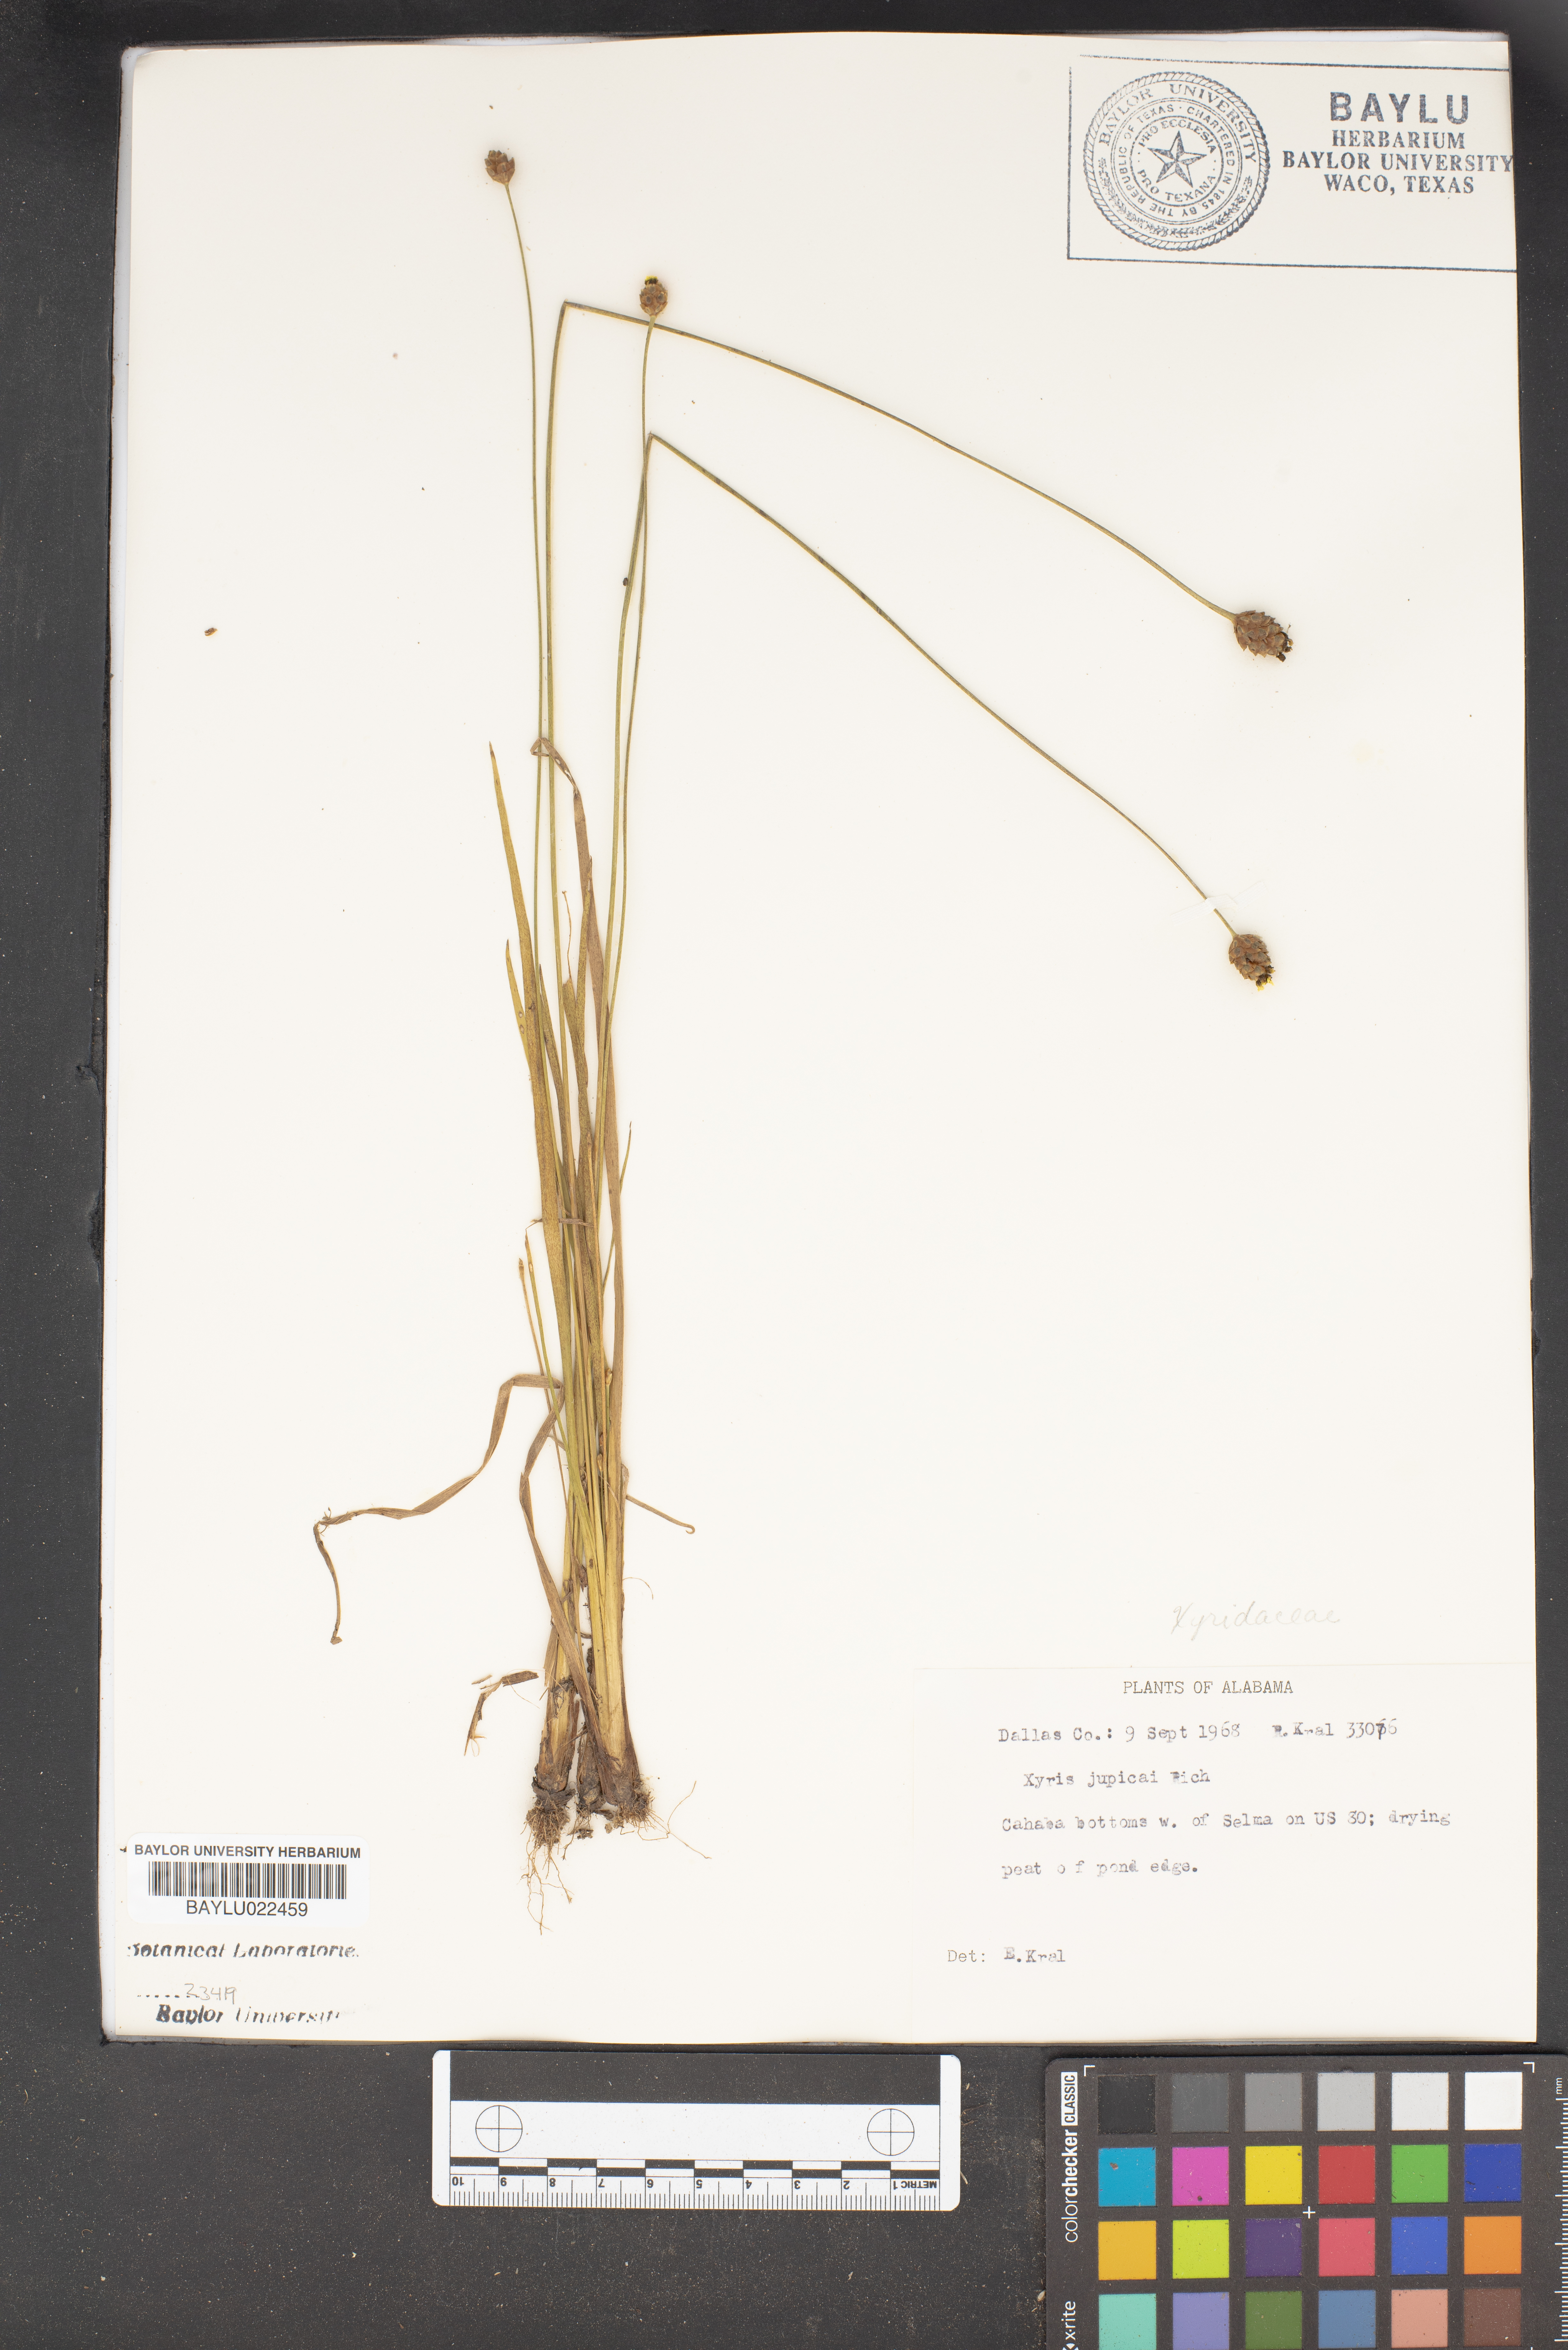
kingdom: Plantae
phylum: Tracheophyta
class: Liliopsida
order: Poales
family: Xyridaceae
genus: Xyris
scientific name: Xyris jupicai
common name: Richard's yelloweyed grass
